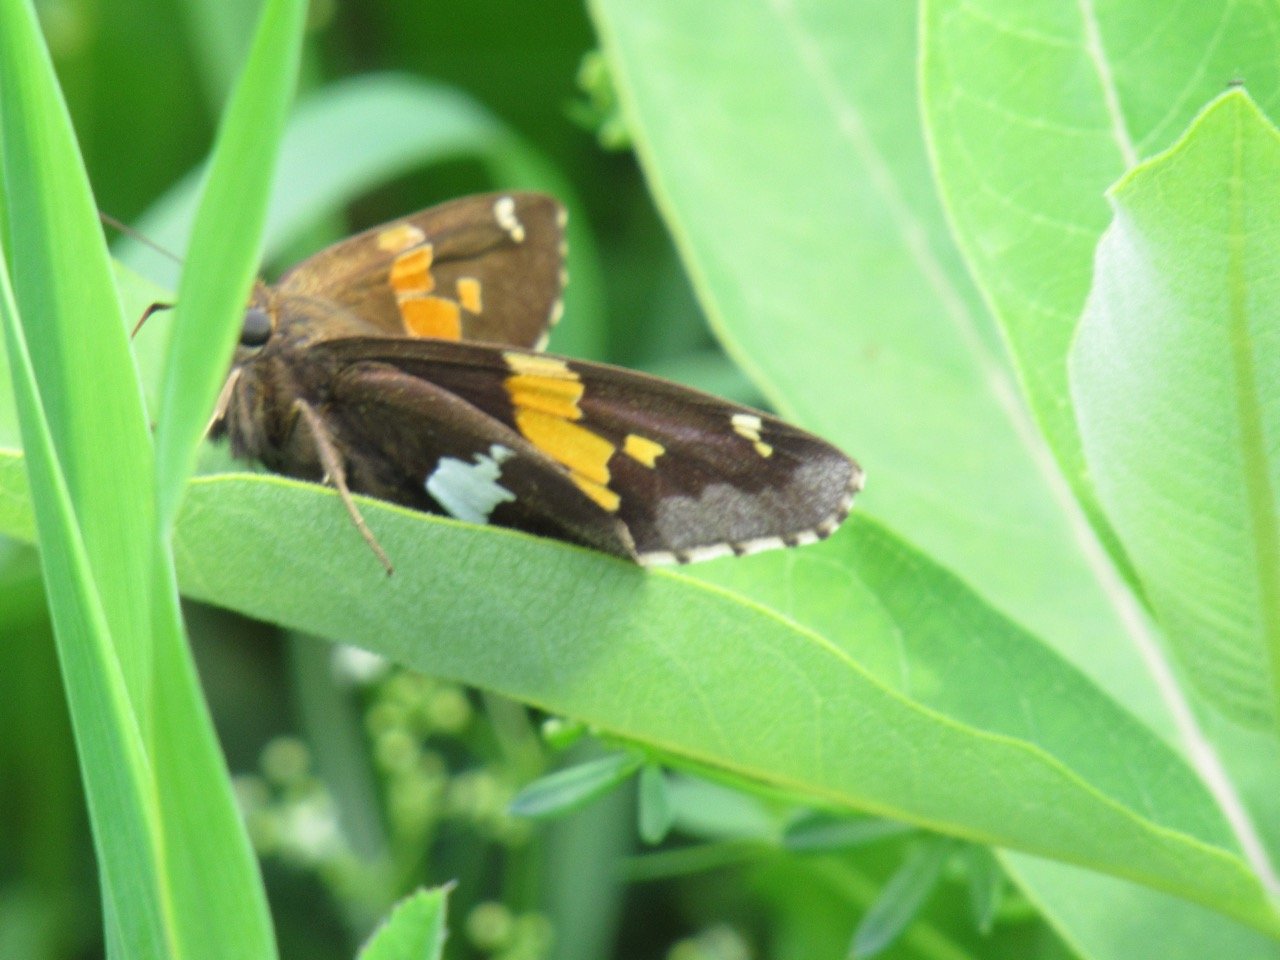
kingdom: Animalia
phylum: Arthropoda
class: Insecta
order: Lepidoptera
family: Hesperiidae
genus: Epargyreus
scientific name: Epargyreus clarus
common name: Silver-spotted Skipper
